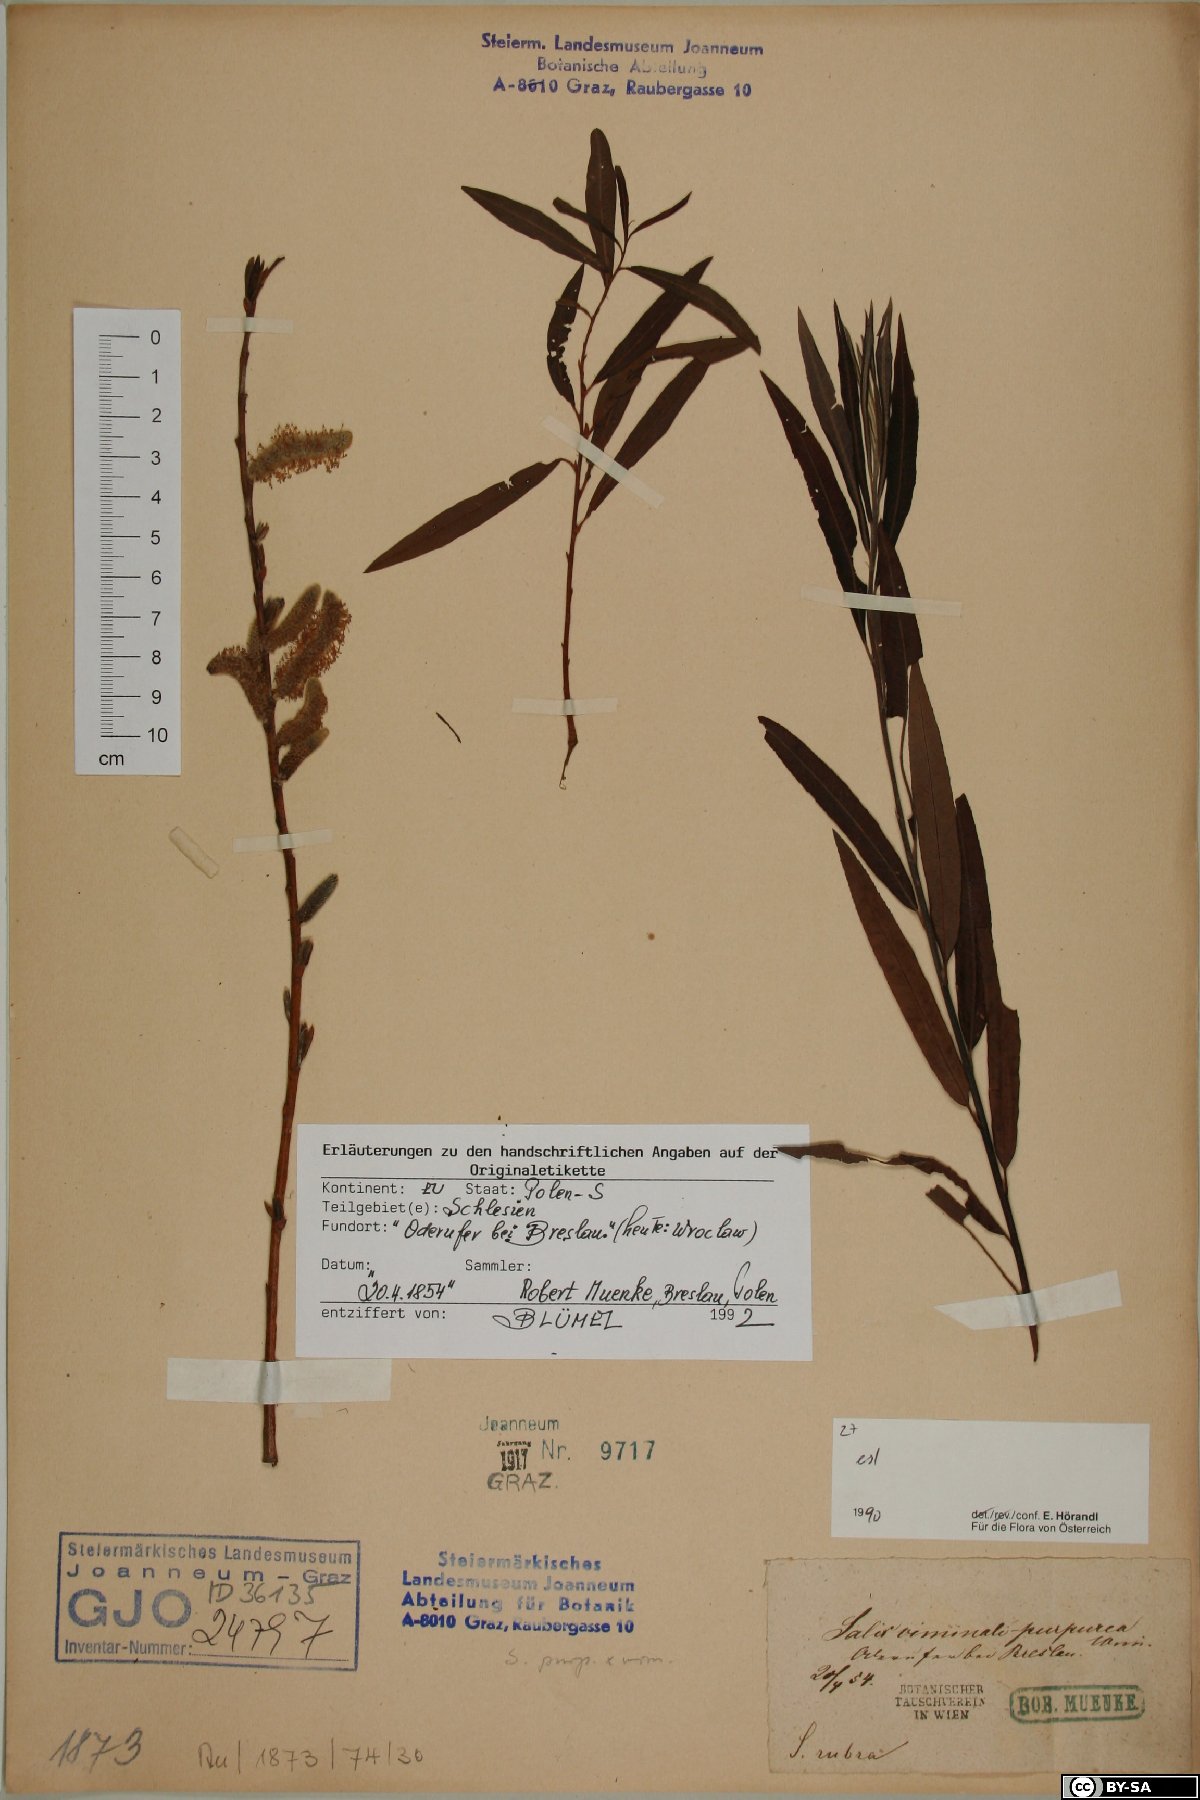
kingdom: Plantae
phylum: Tracheophyta
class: Magnoliopsida
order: Malpighiales
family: Salicaceae
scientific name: Salicaceae
